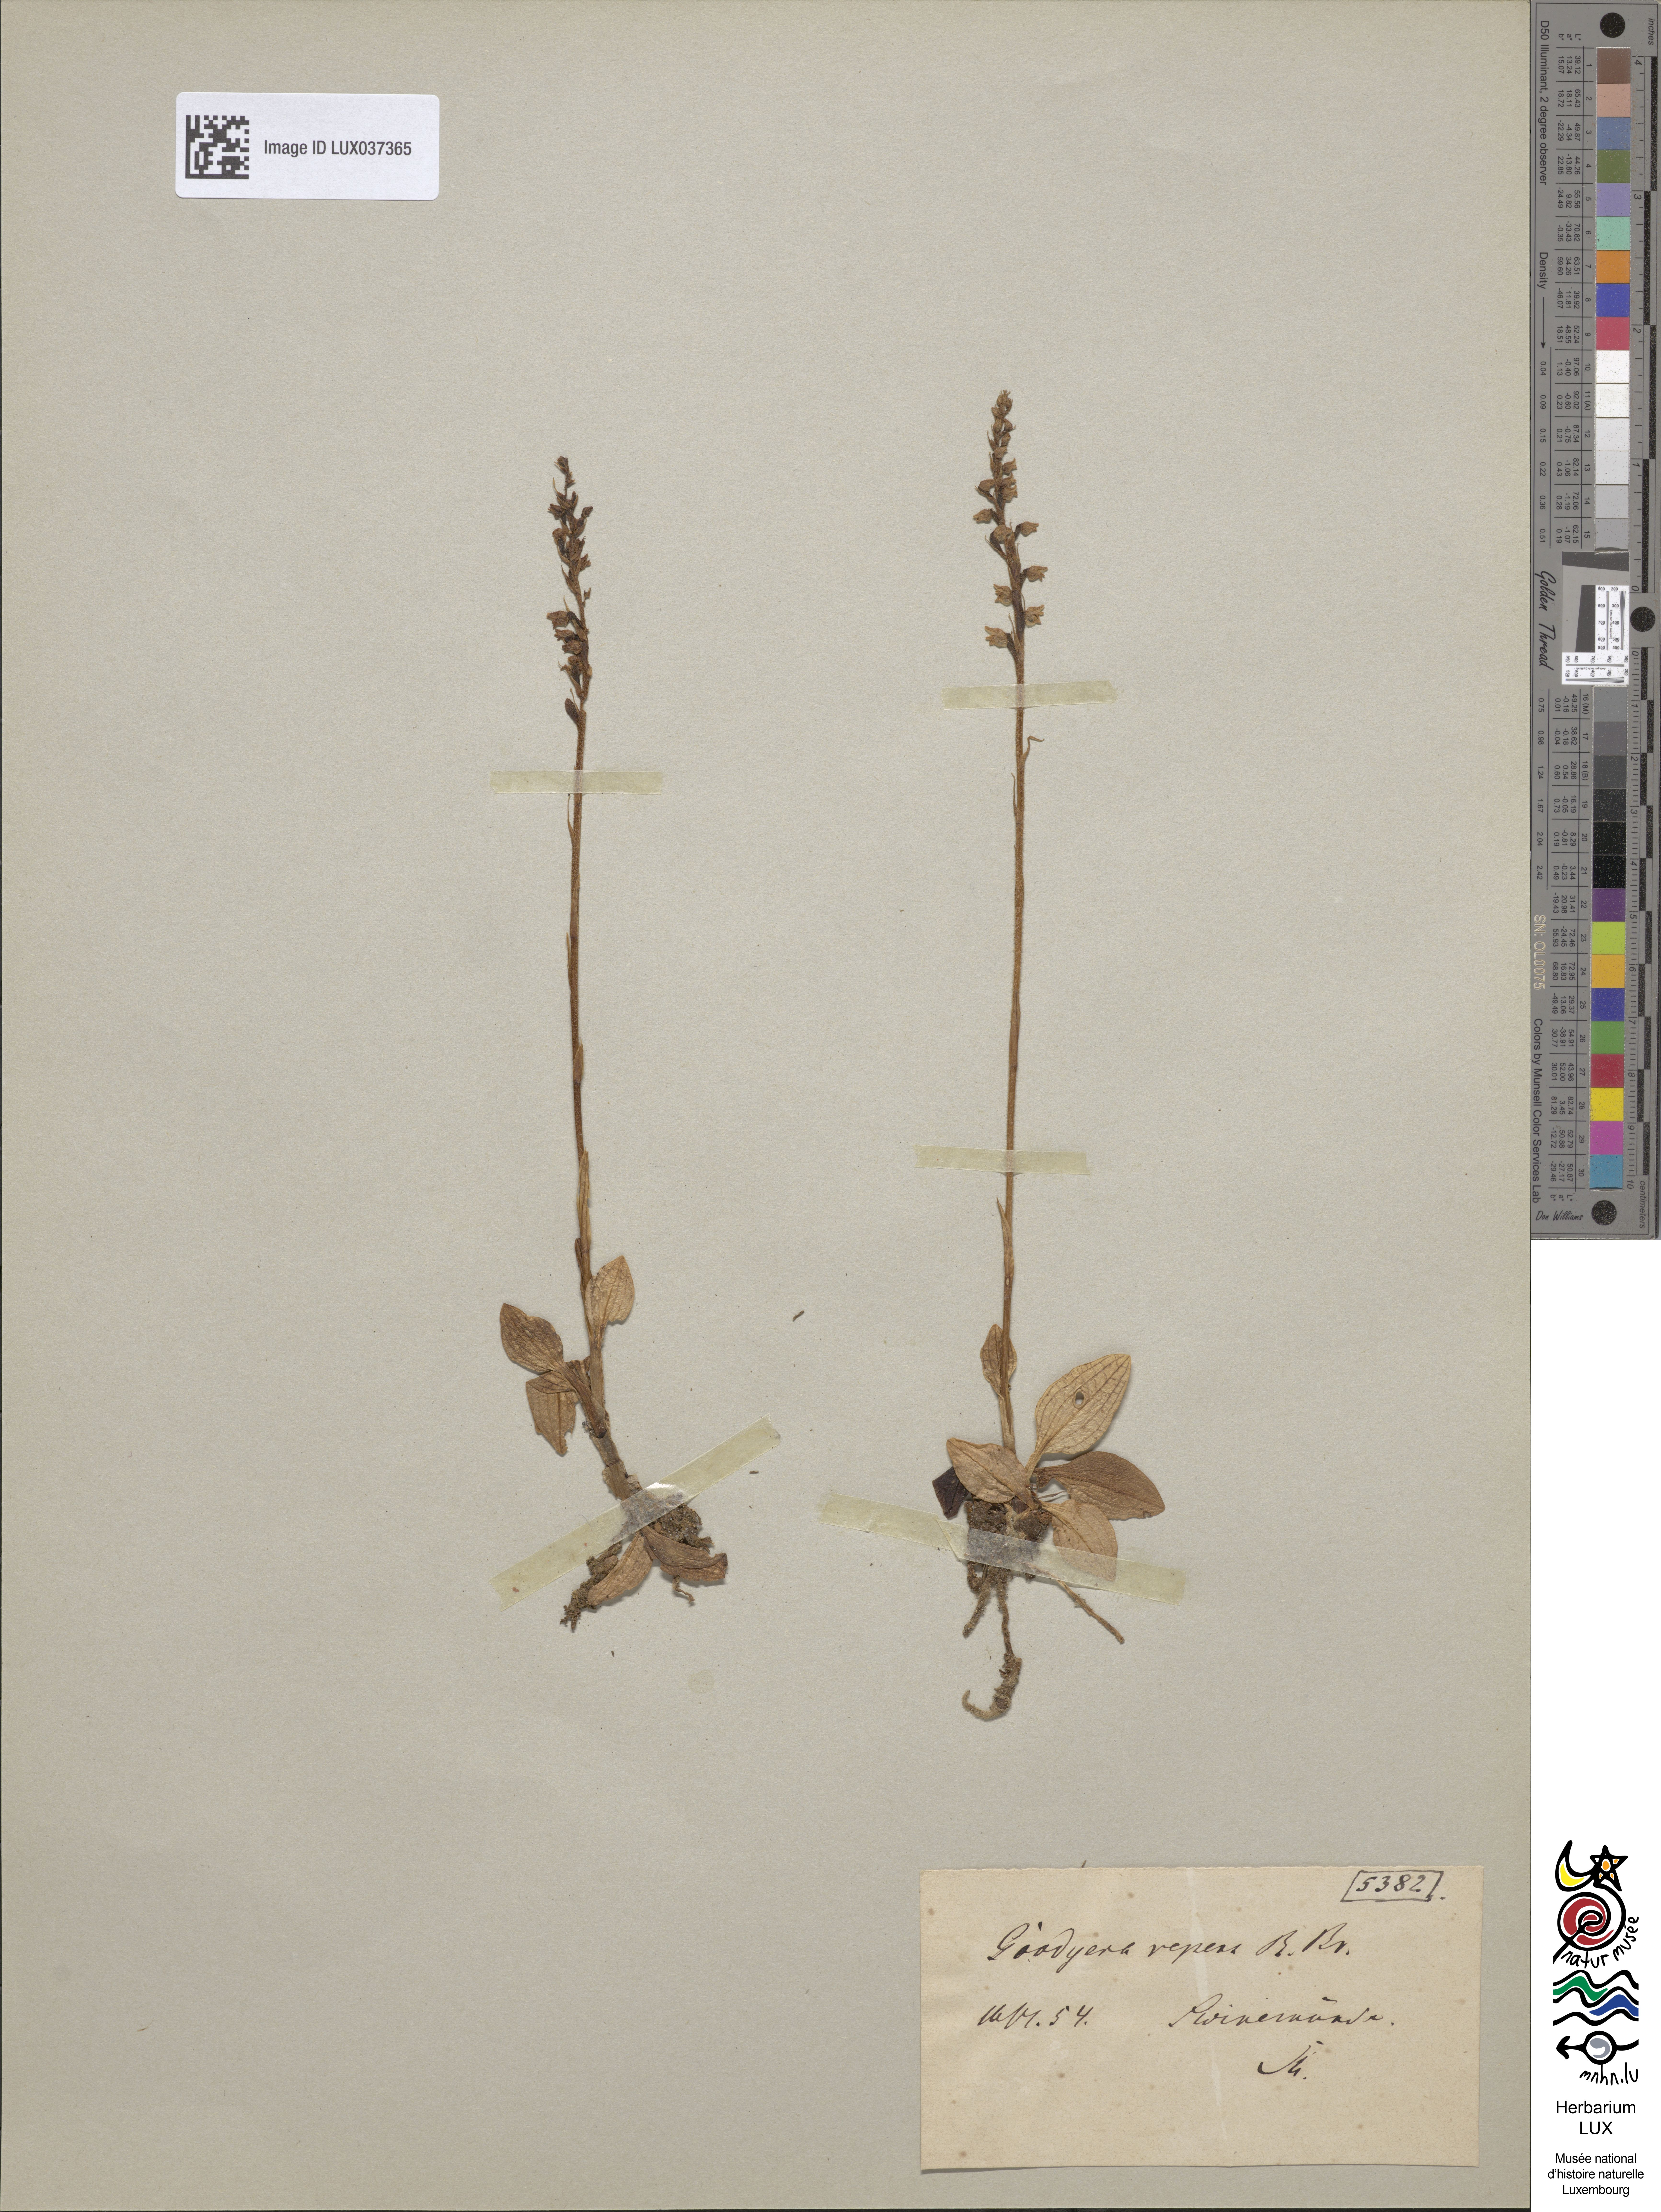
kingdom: Plantae
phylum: Tracheophyta
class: Liliopsida
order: Asparagales
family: Orchidaceae
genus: Goodyera
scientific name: Goodyera repens
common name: Creeping lady's-tresses
